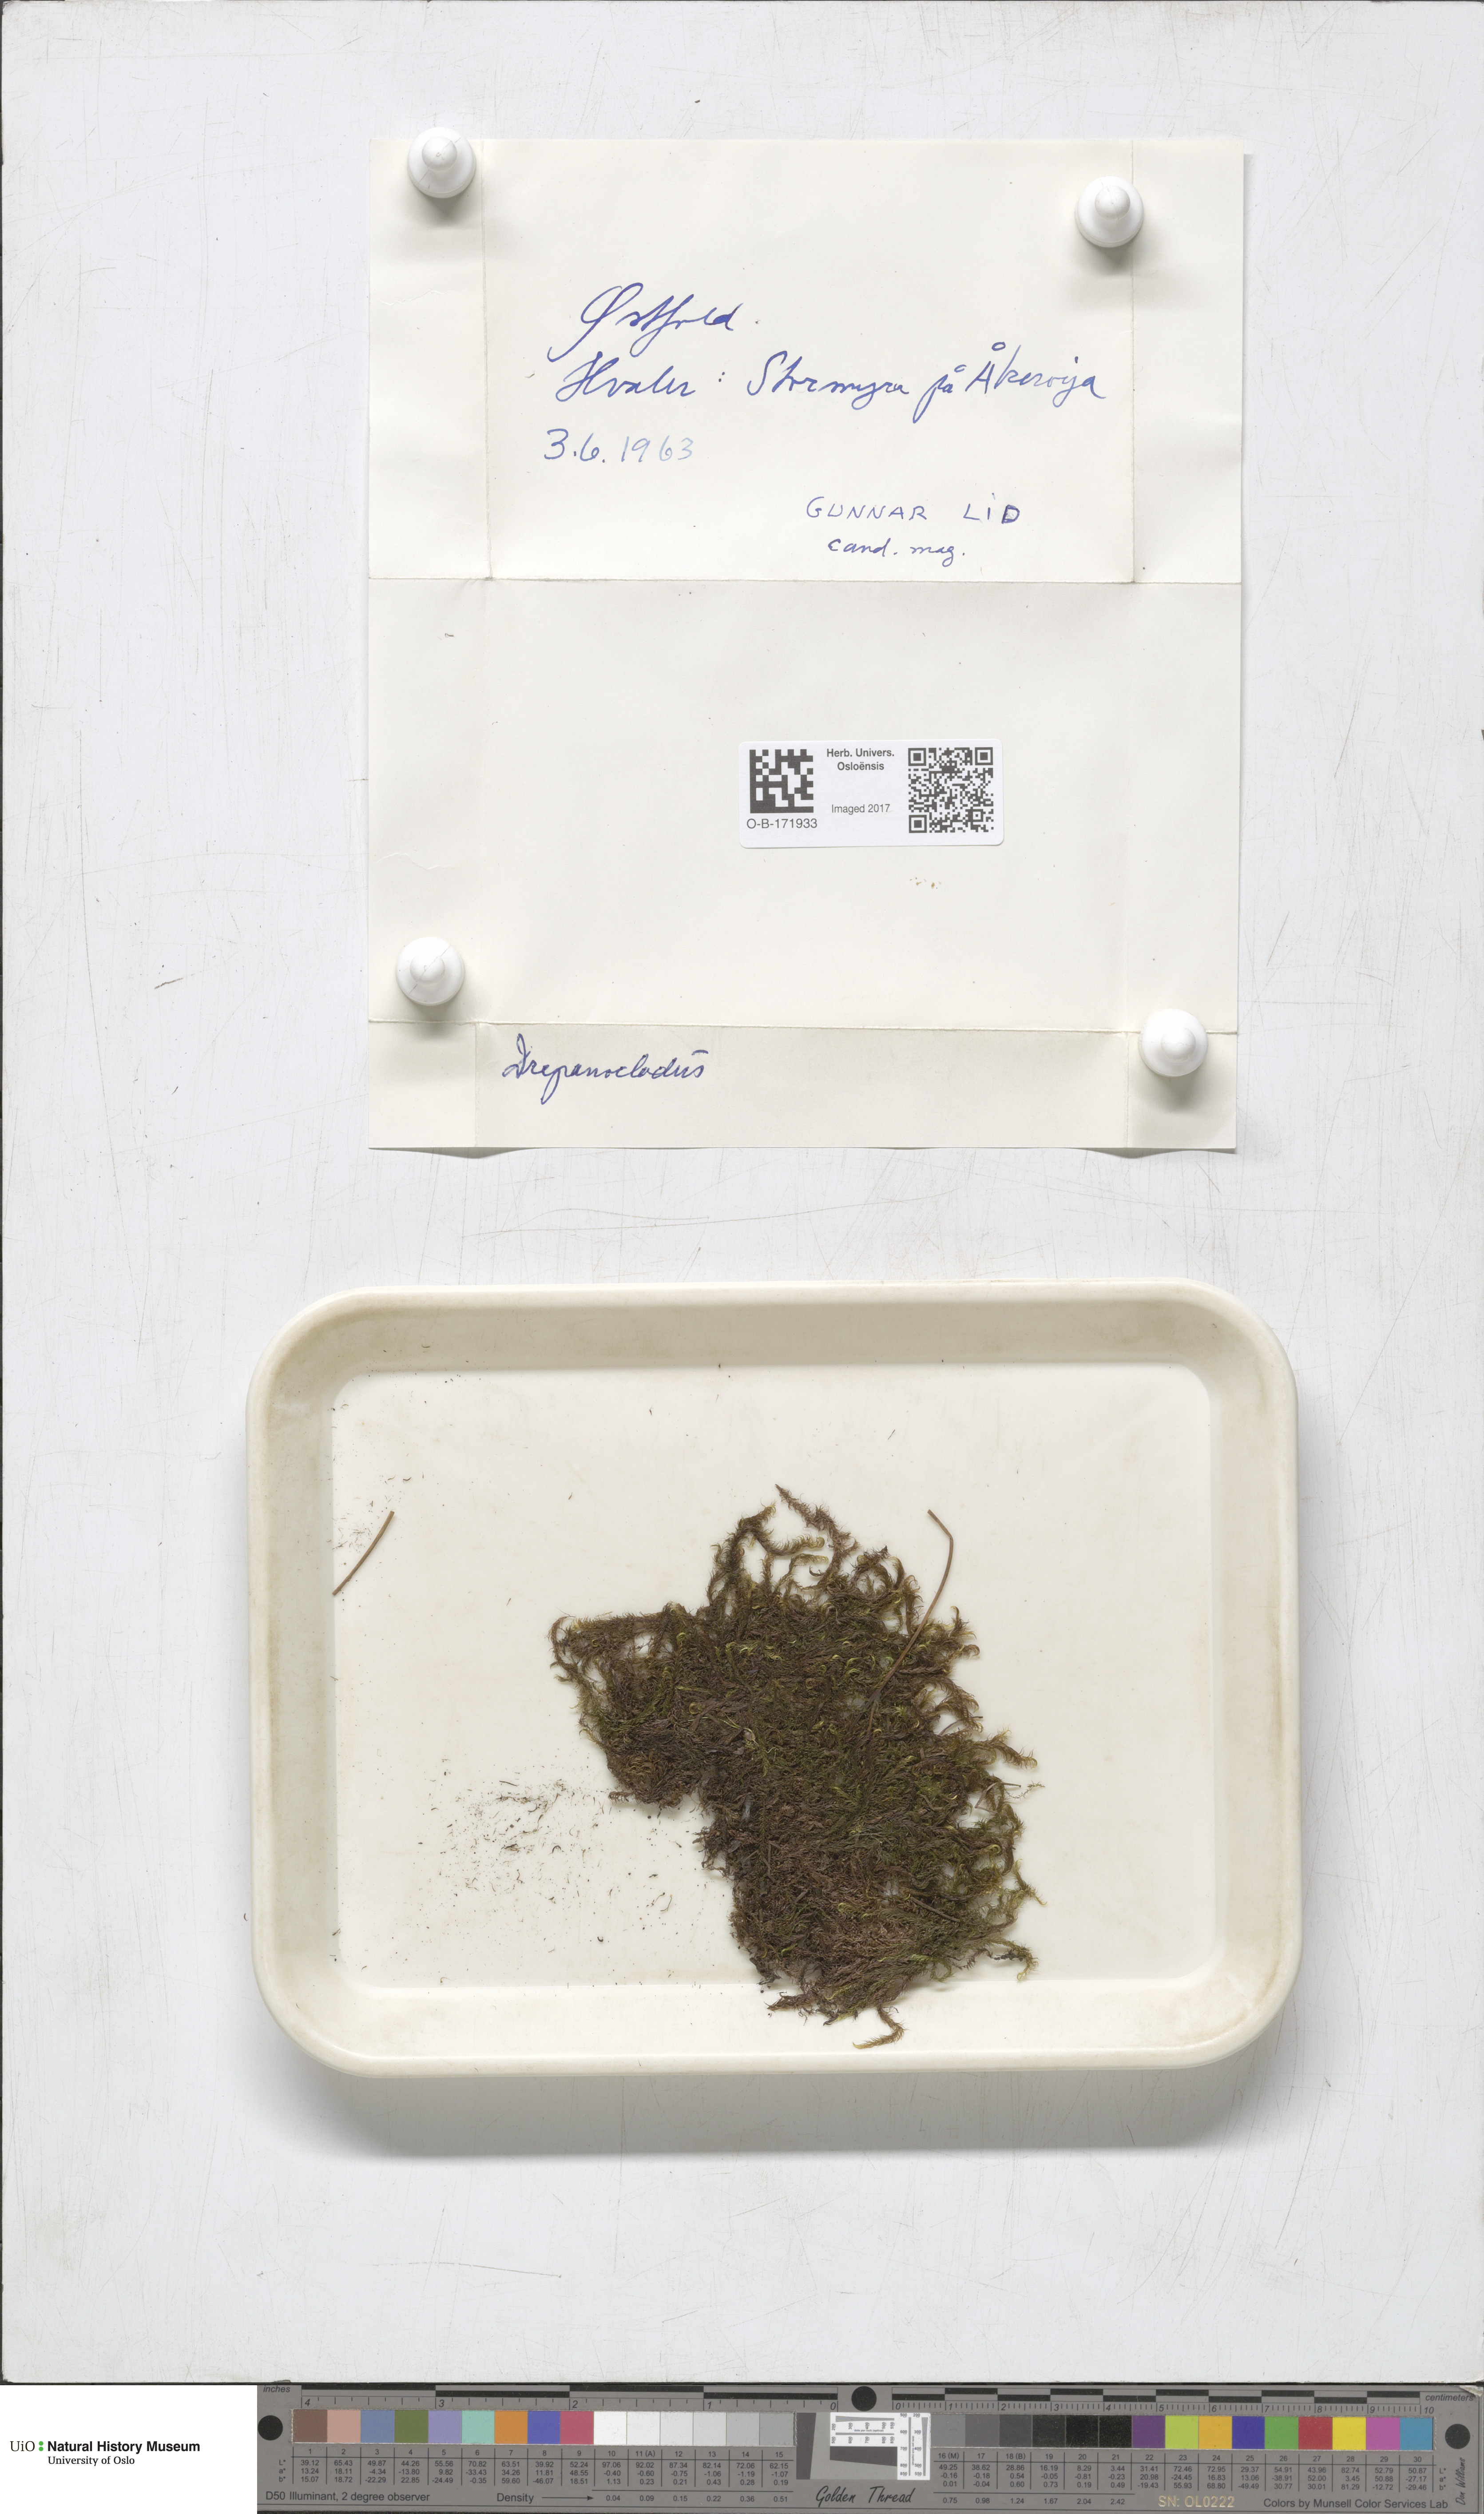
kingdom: Plantae
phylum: Bryophyta
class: Bryopsida
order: Hypnales
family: Amblystegiaceae
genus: Drepanocladus
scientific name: Drepanocladus sordidus
